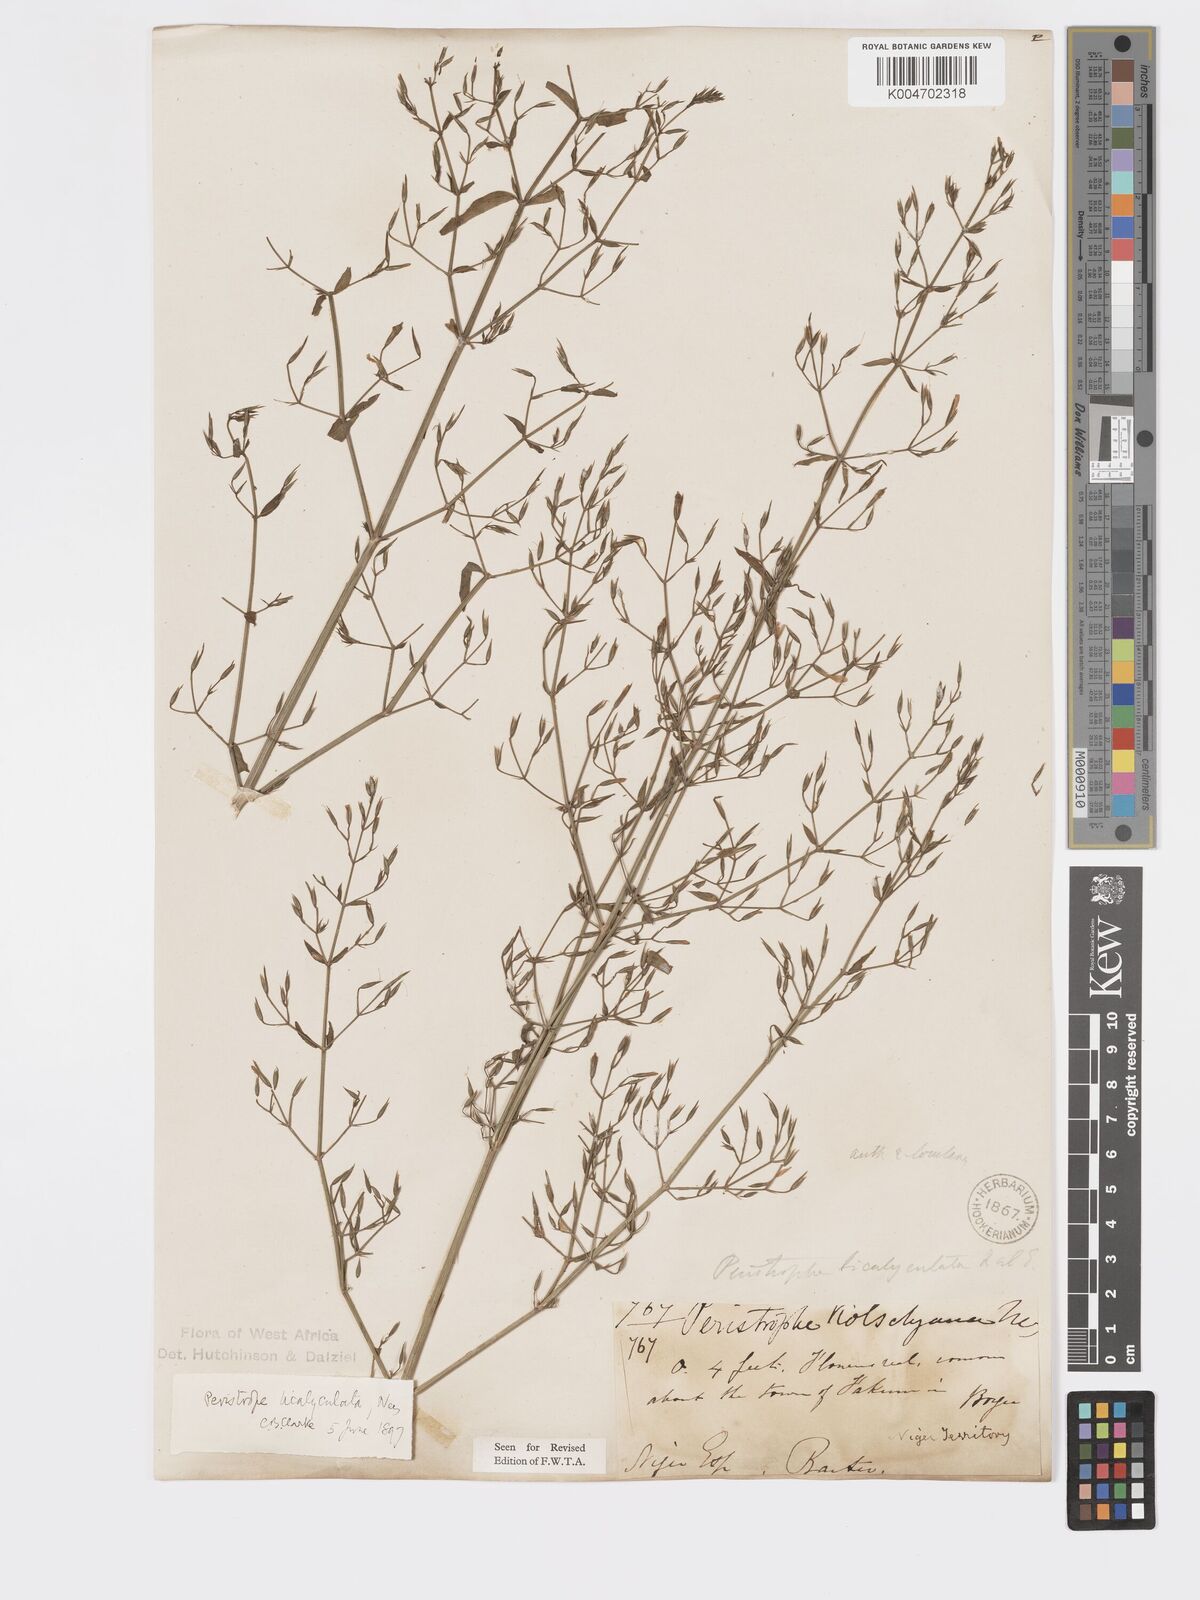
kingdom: Plantae
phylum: Tracheophyta
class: Magnoliopsida
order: Lamiales
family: Acanthaceae
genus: Dicliptera
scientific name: Dicliptera paniculata
